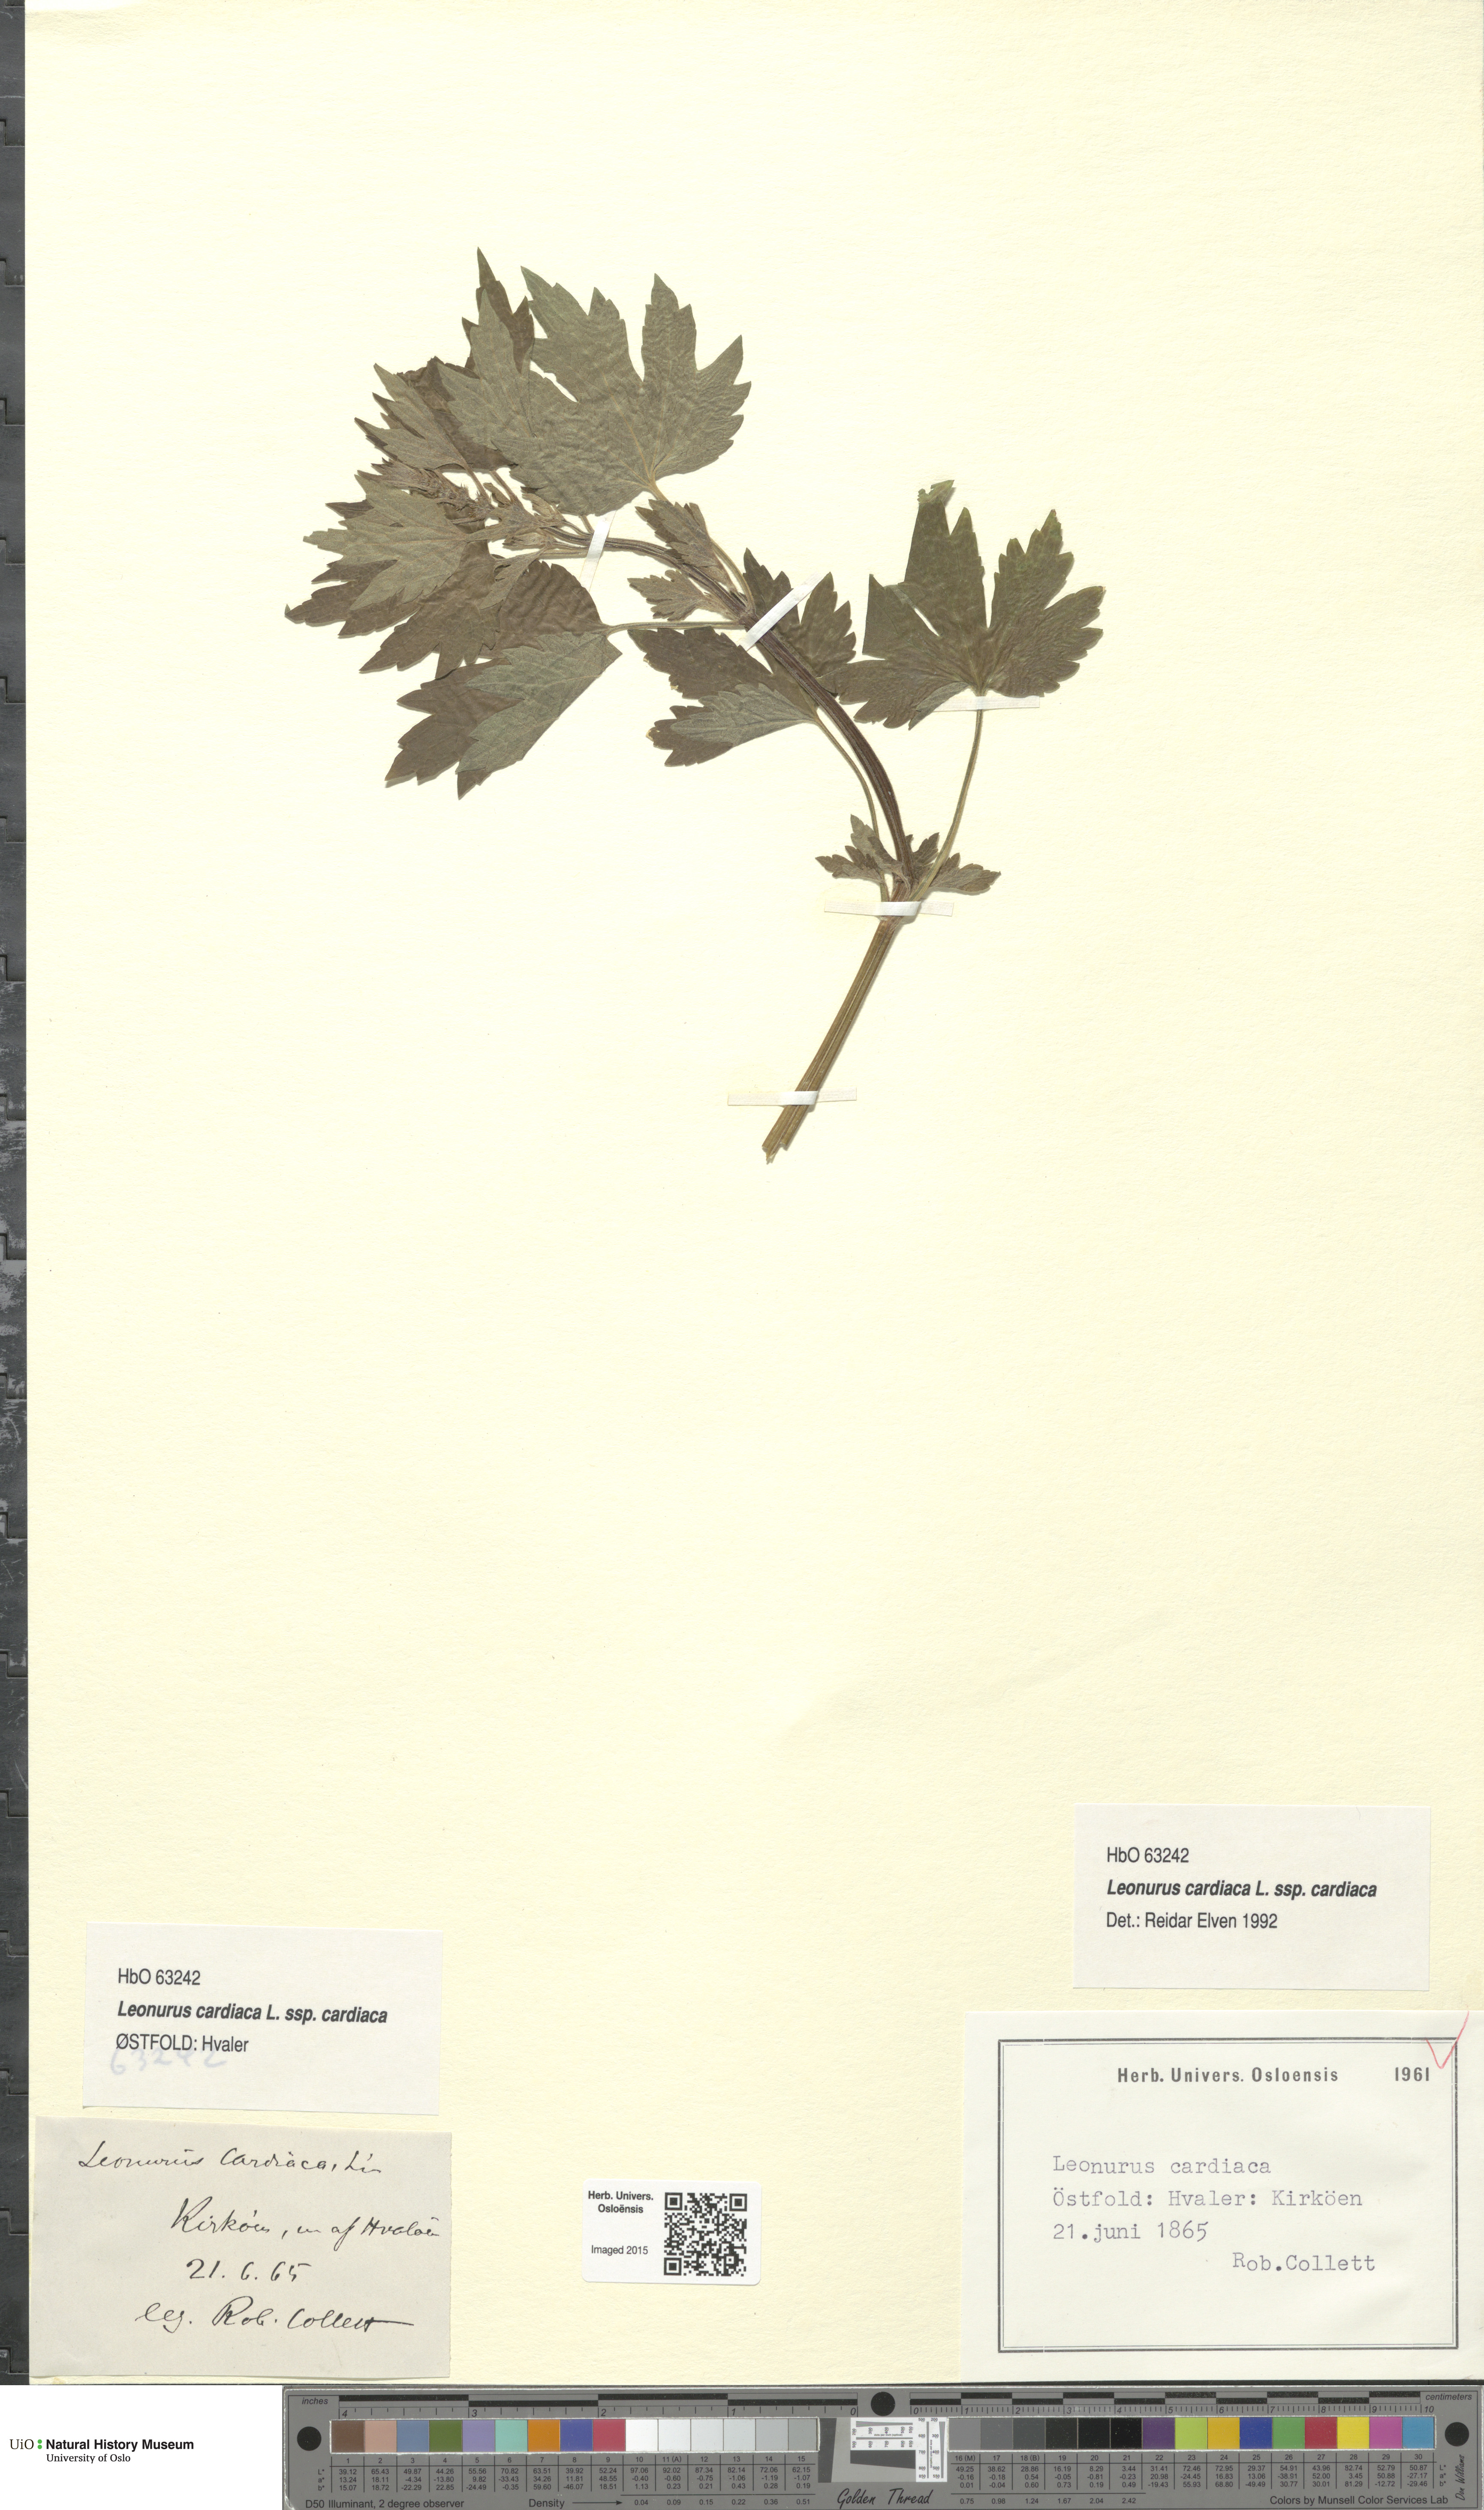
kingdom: Plantae
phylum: Tracheophyta
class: Magnoliopsida
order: Lamiales
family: Lamiaceae
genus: Leonurus
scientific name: Leonurus cardiaca
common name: Motherwort
